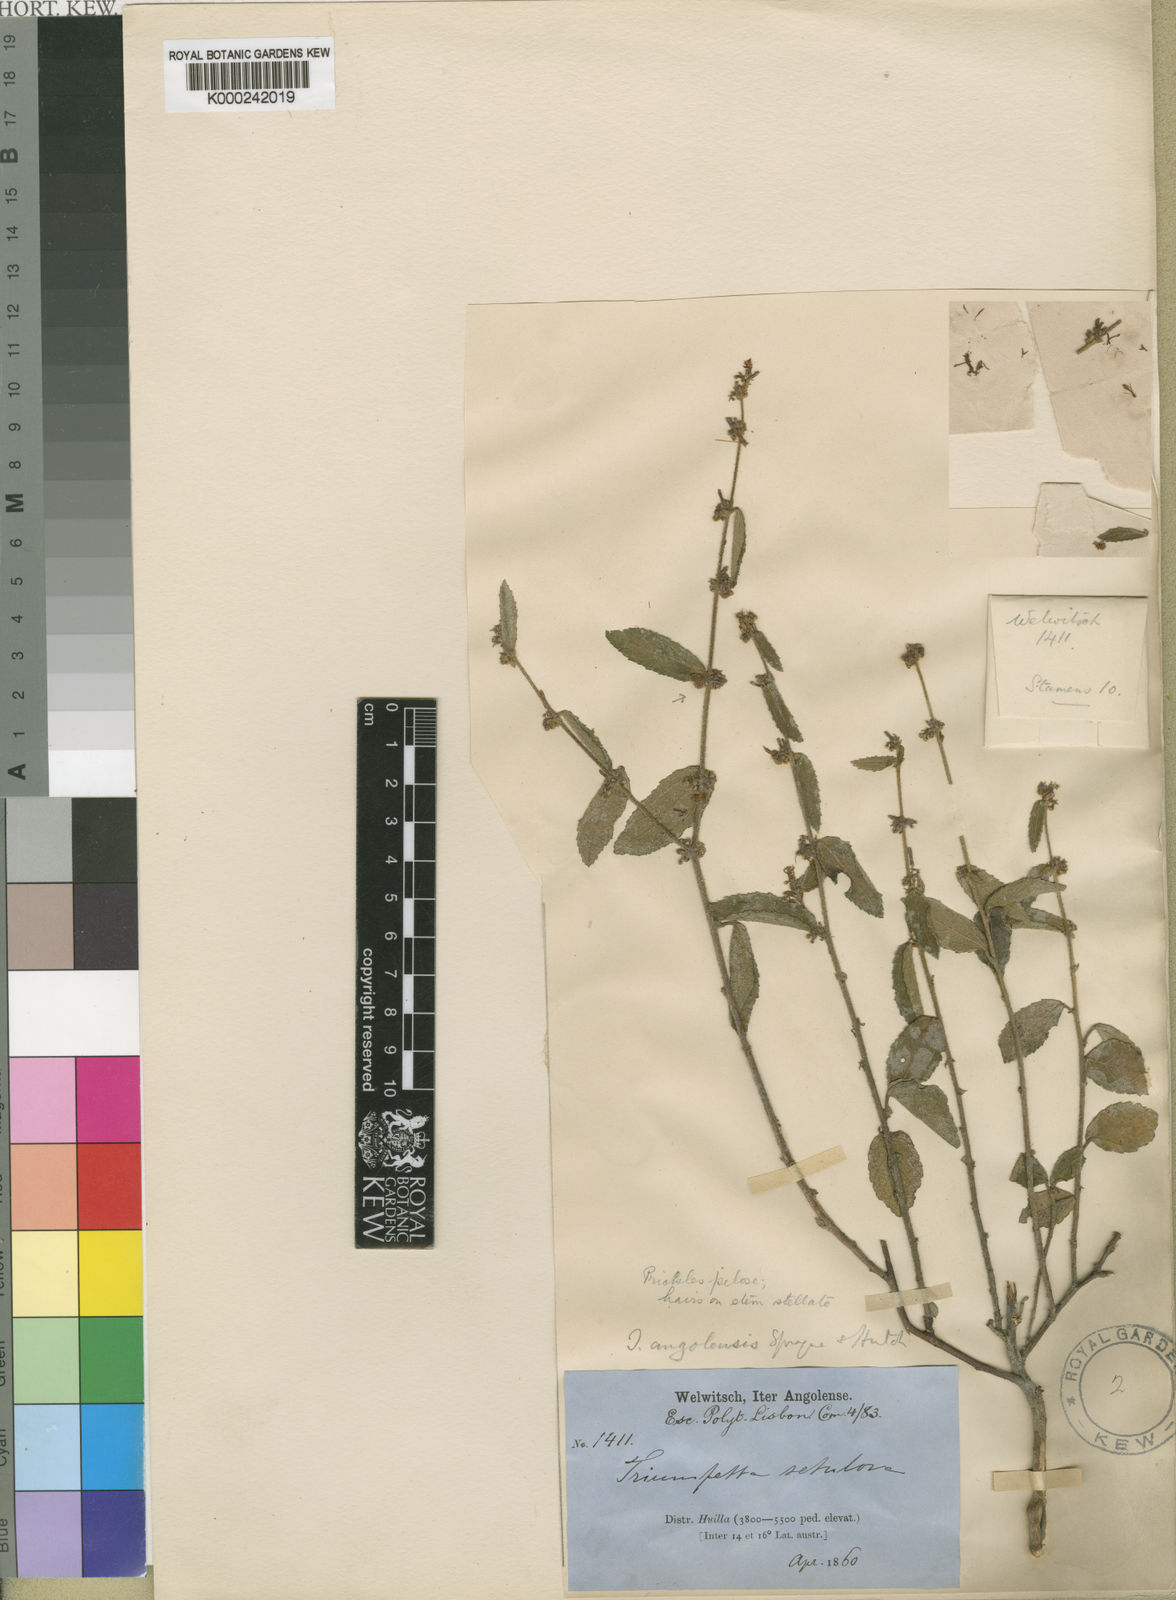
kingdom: Plantae
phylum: Tracheophyta
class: Magnoliopsida
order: Malvales
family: Malvaceae
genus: Triumfetta
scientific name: Triumfetta angolensis
